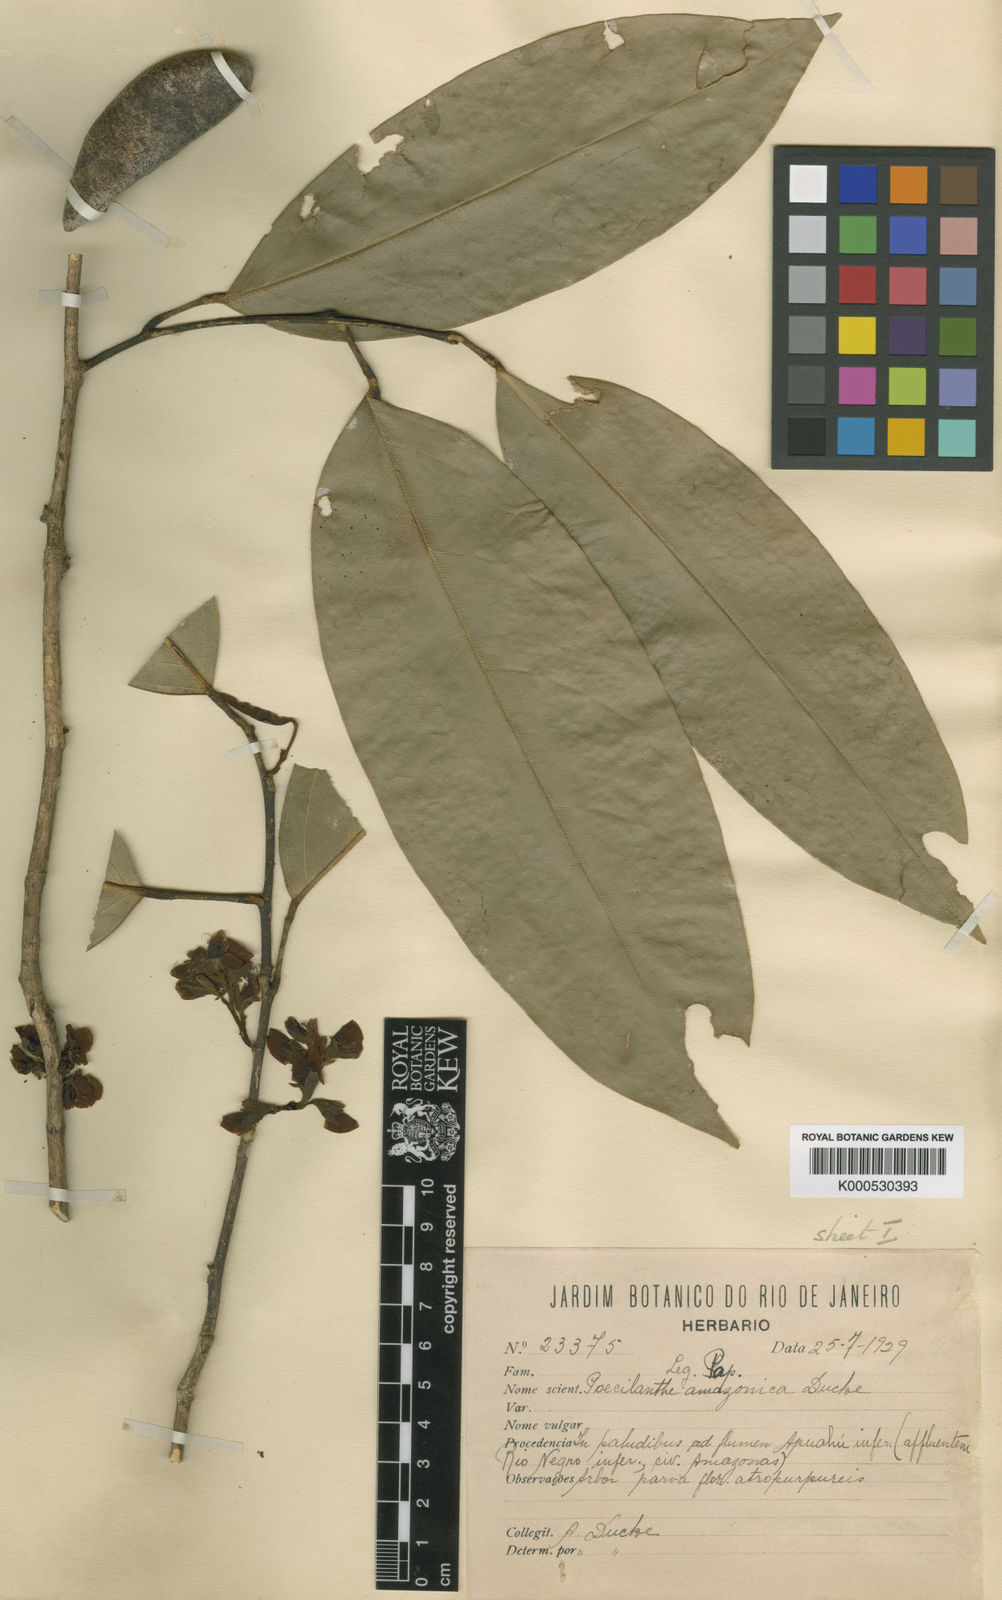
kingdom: Plantae
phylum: Tracheophyta
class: Magnoliopsida
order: Fabales
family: Fabaceae
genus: Limadendron
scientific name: Limadendron amazonicum
